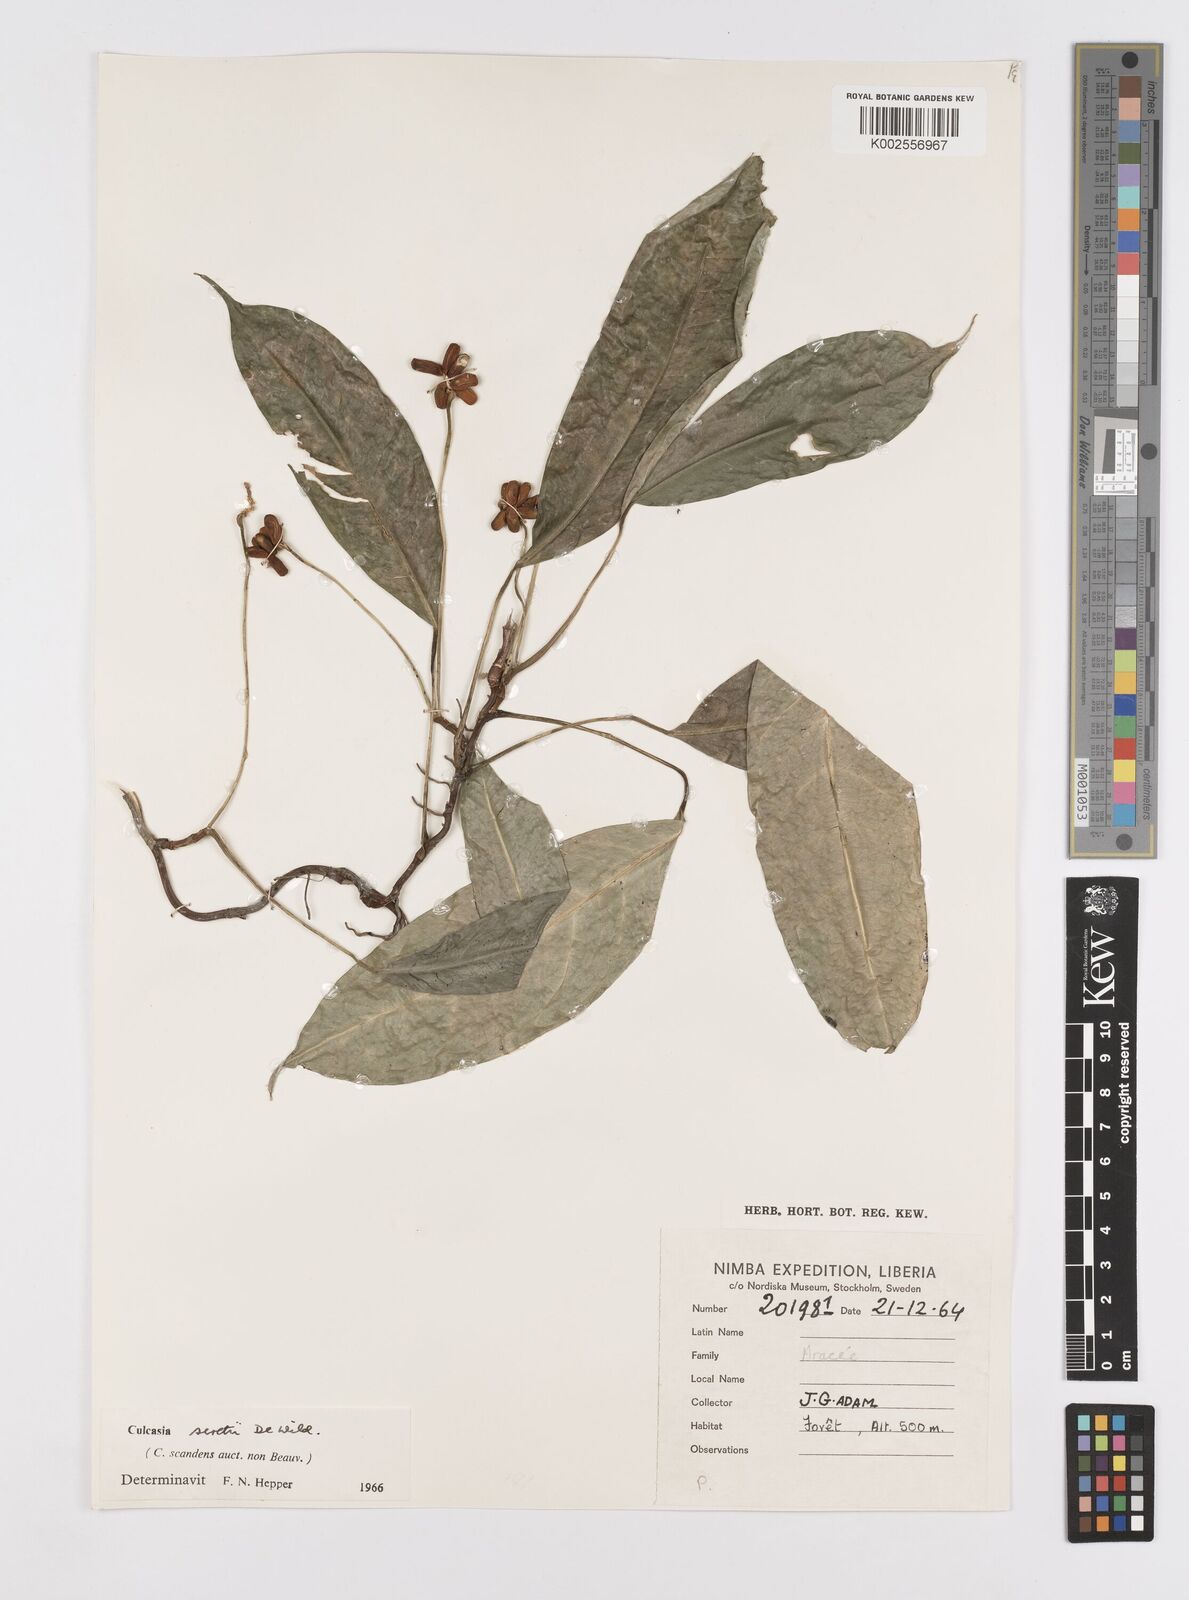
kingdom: Plantae
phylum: Tracheophyta
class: Liliopsida
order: Alismatales
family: Araceae
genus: Culcasia
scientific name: Culcasia seretii
